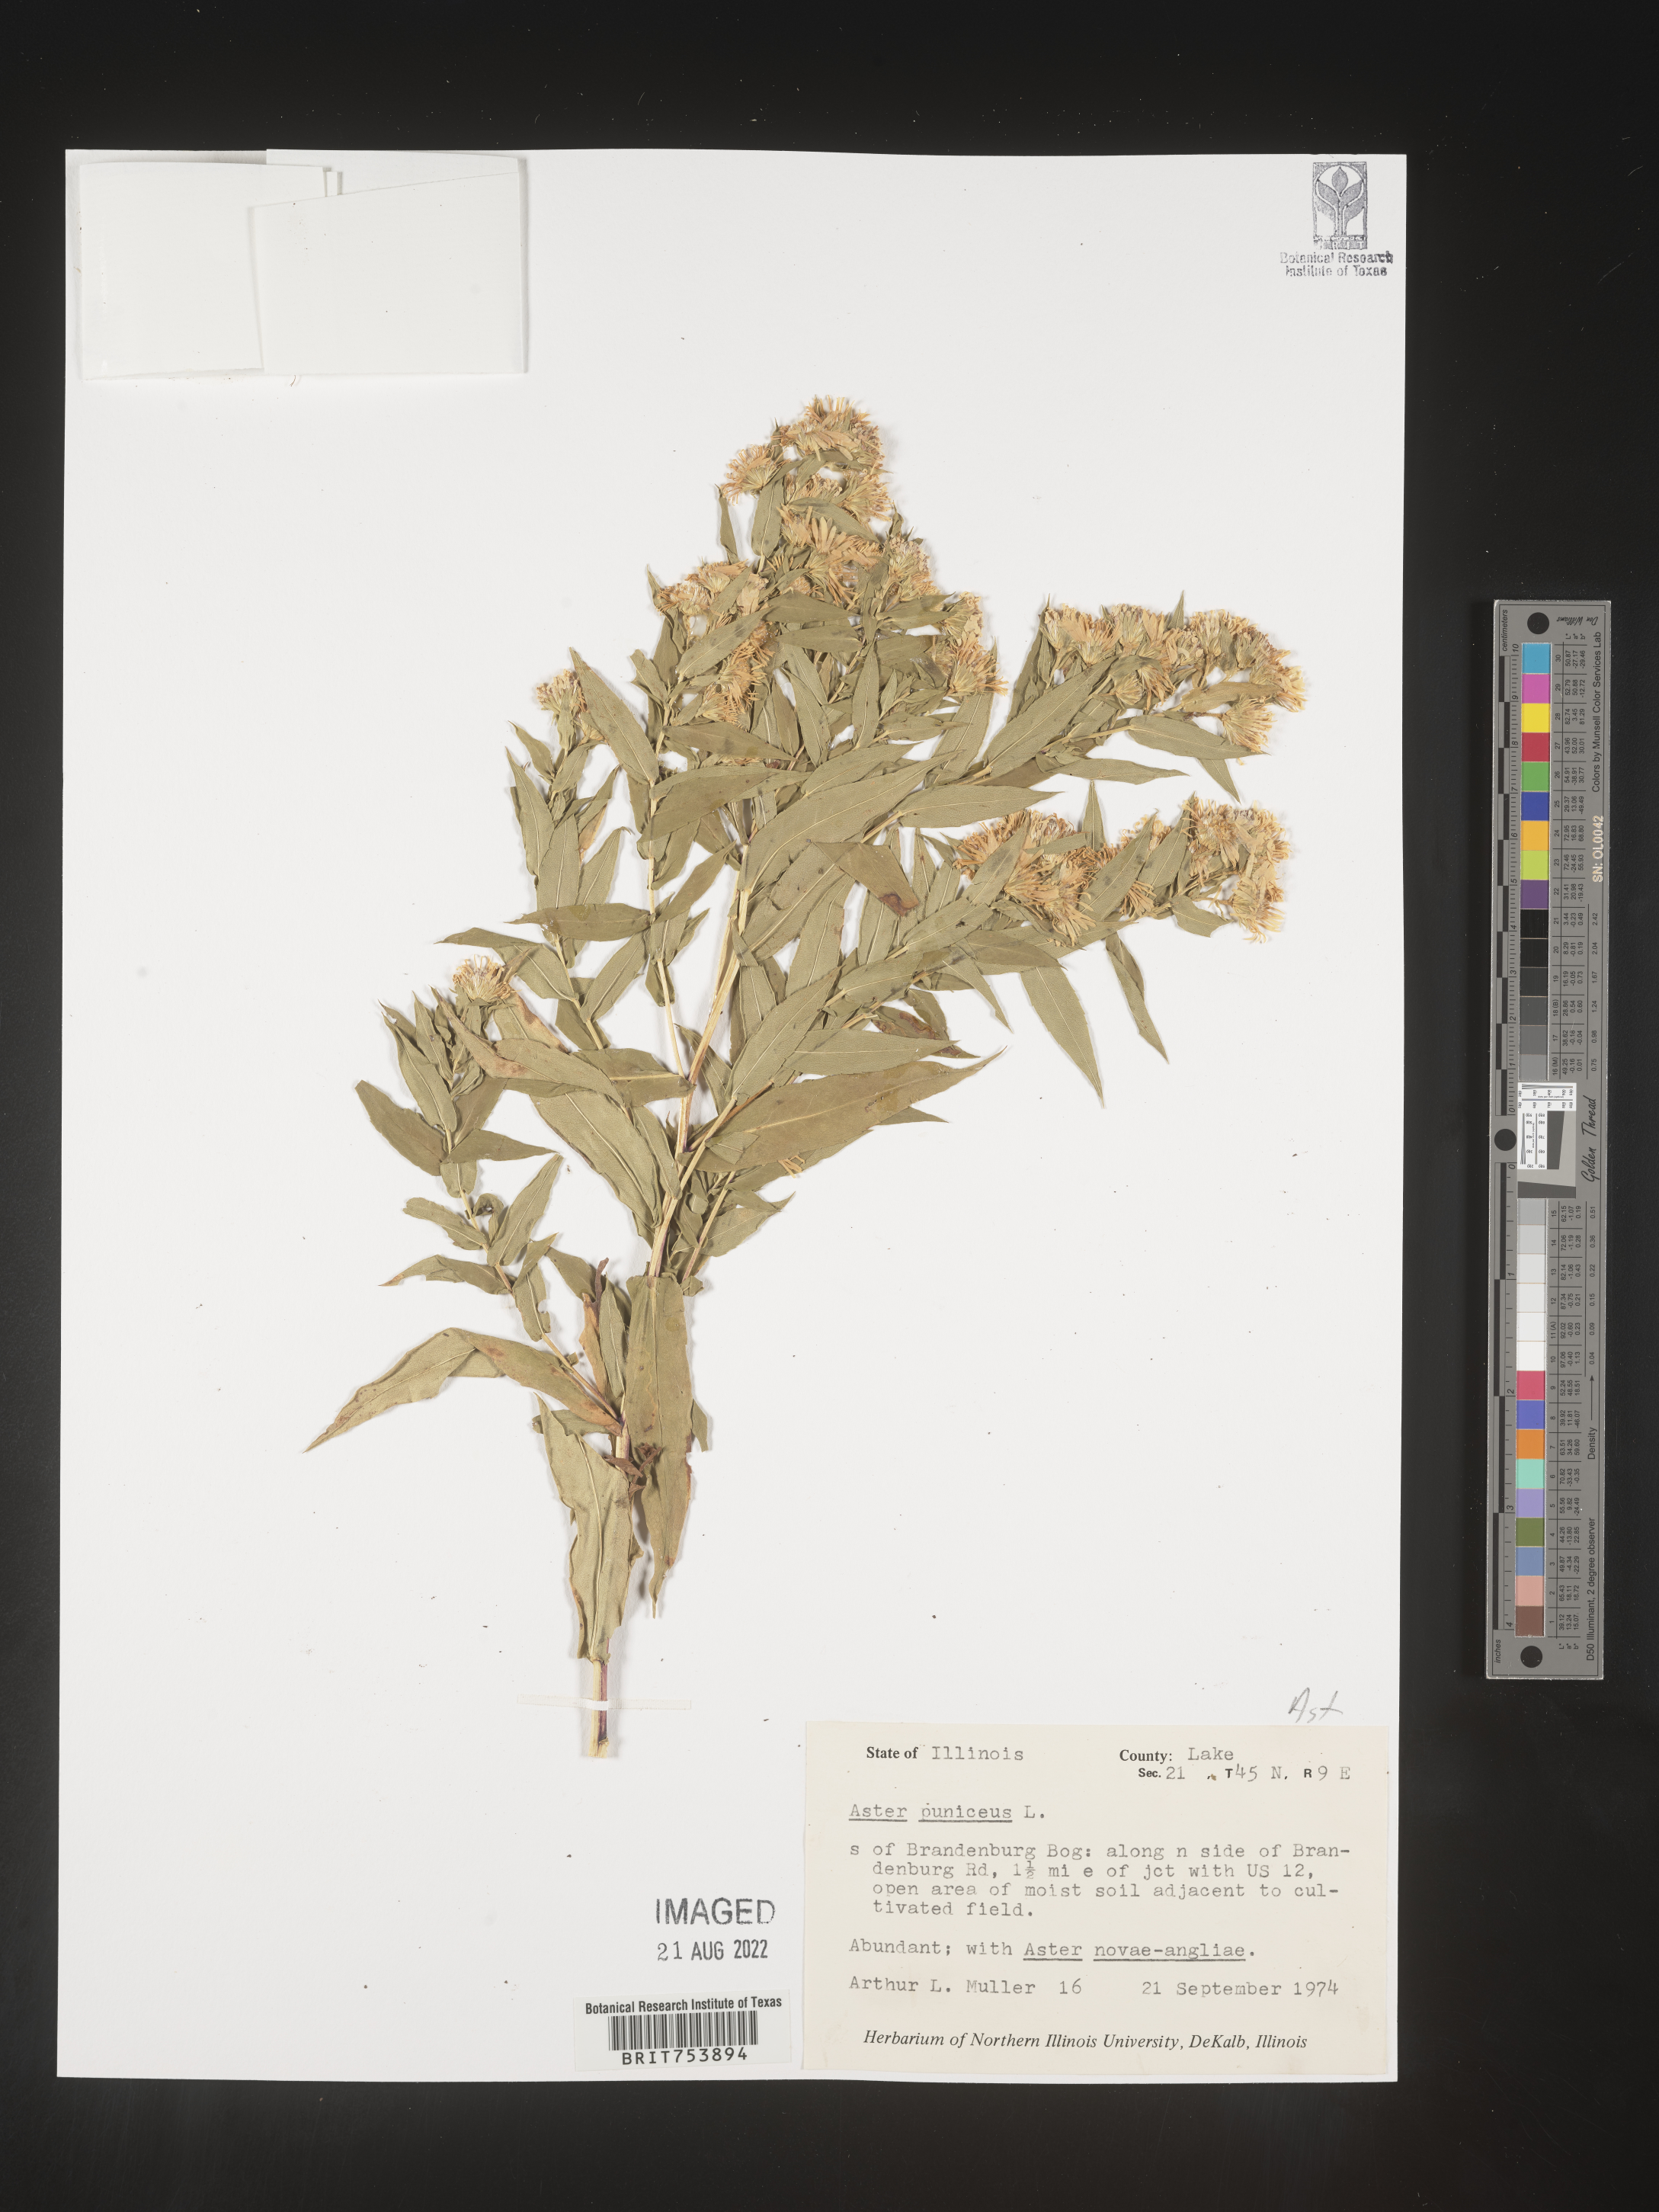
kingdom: Plantae
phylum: Tracheophyta
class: Magnoliopsida
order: Asterales
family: Asteraceae
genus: Symphyotrichum
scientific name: Symphyotrichum puniceum
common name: Bog aster
